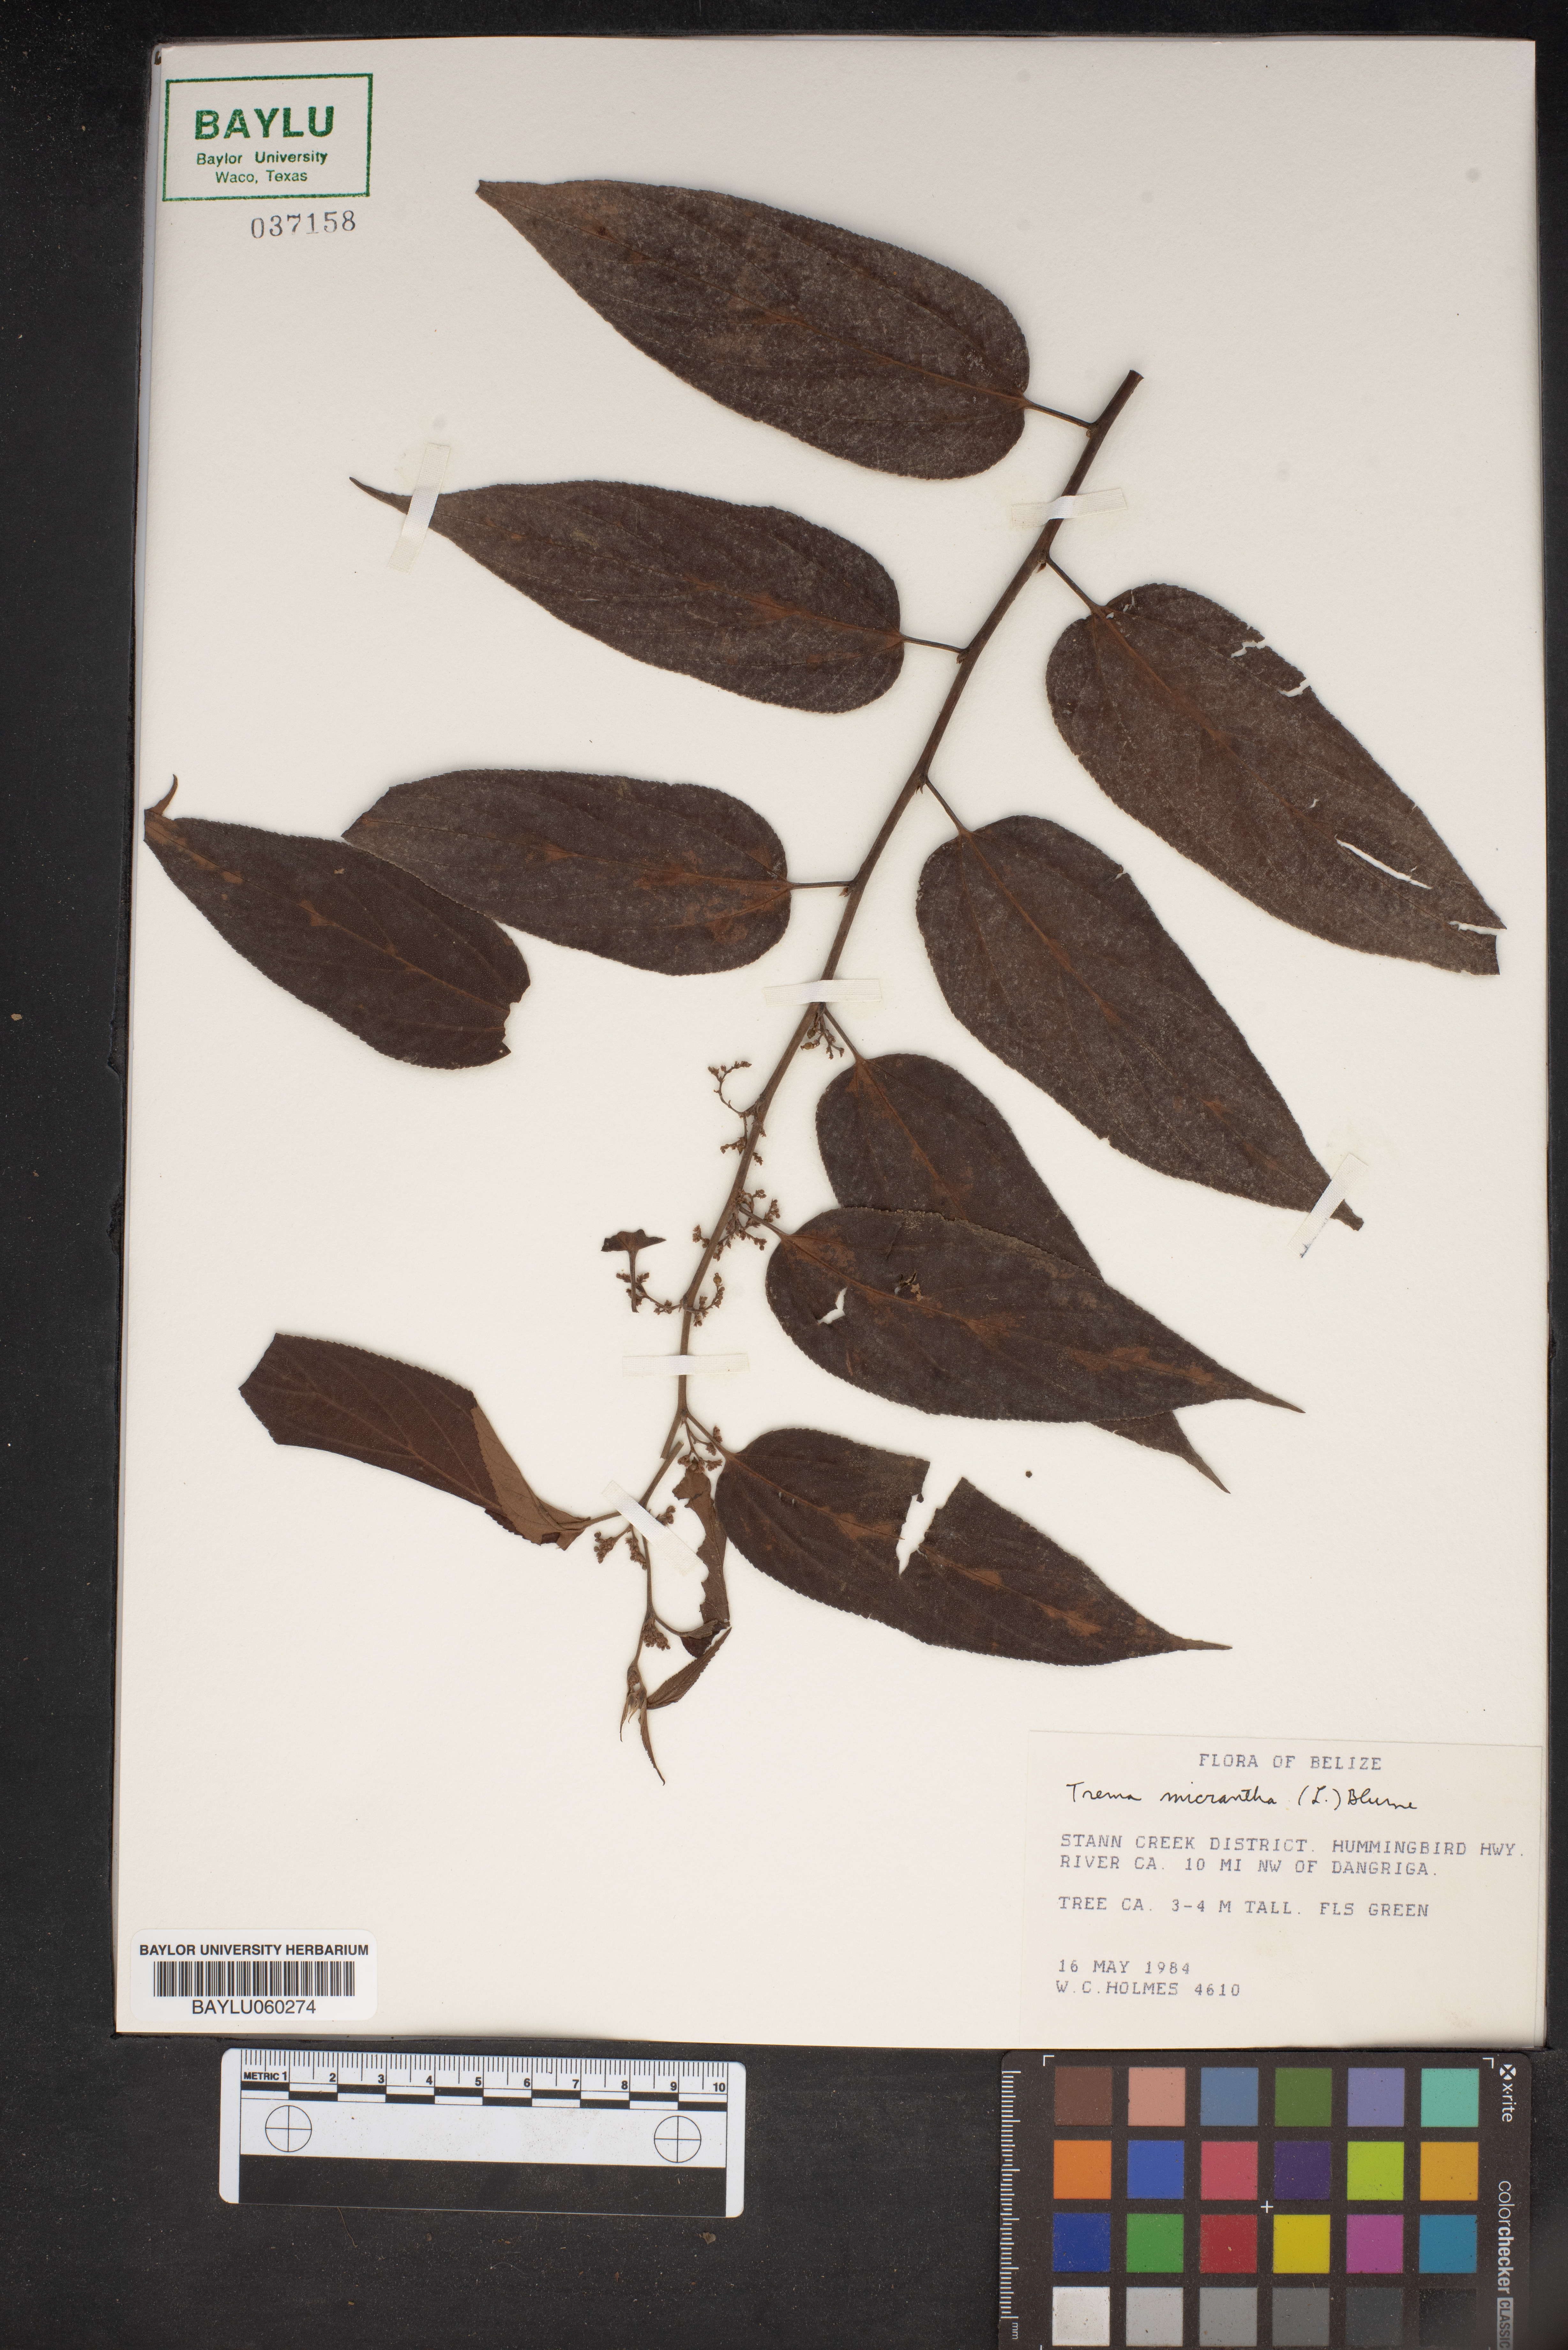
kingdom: Plantae
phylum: Tracheophyta
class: Magnoliopsida
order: Rosales
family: Cannabaceae
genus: Trema
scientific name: Trema micranthum
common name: Jamaican nettletree
